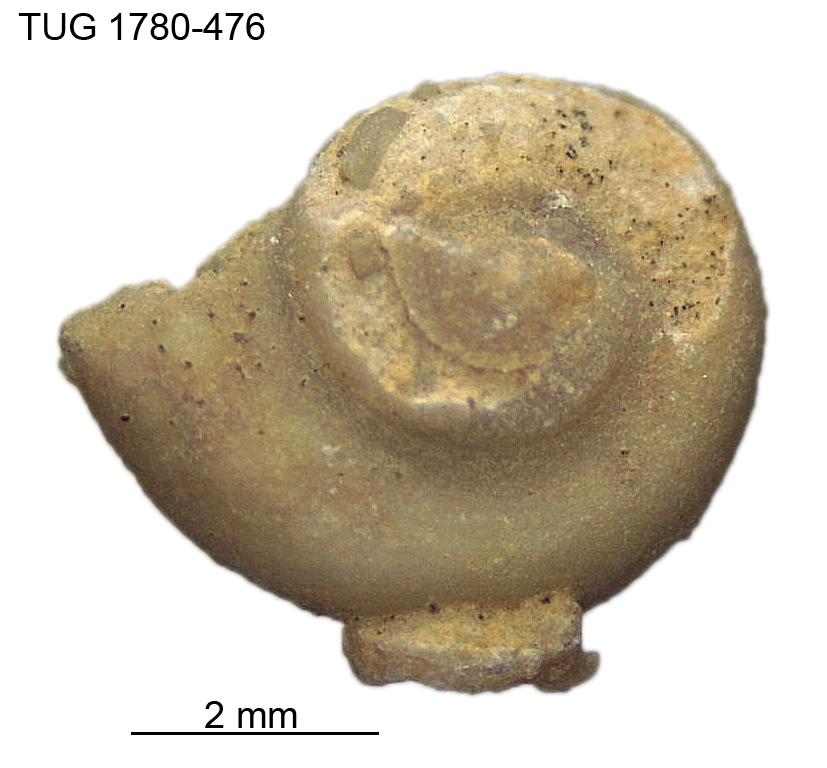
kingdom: Animalia
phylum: Mollusca
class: Gastropoda
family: Platyceratidae
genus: Cyclonema
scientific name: Cyclonema
